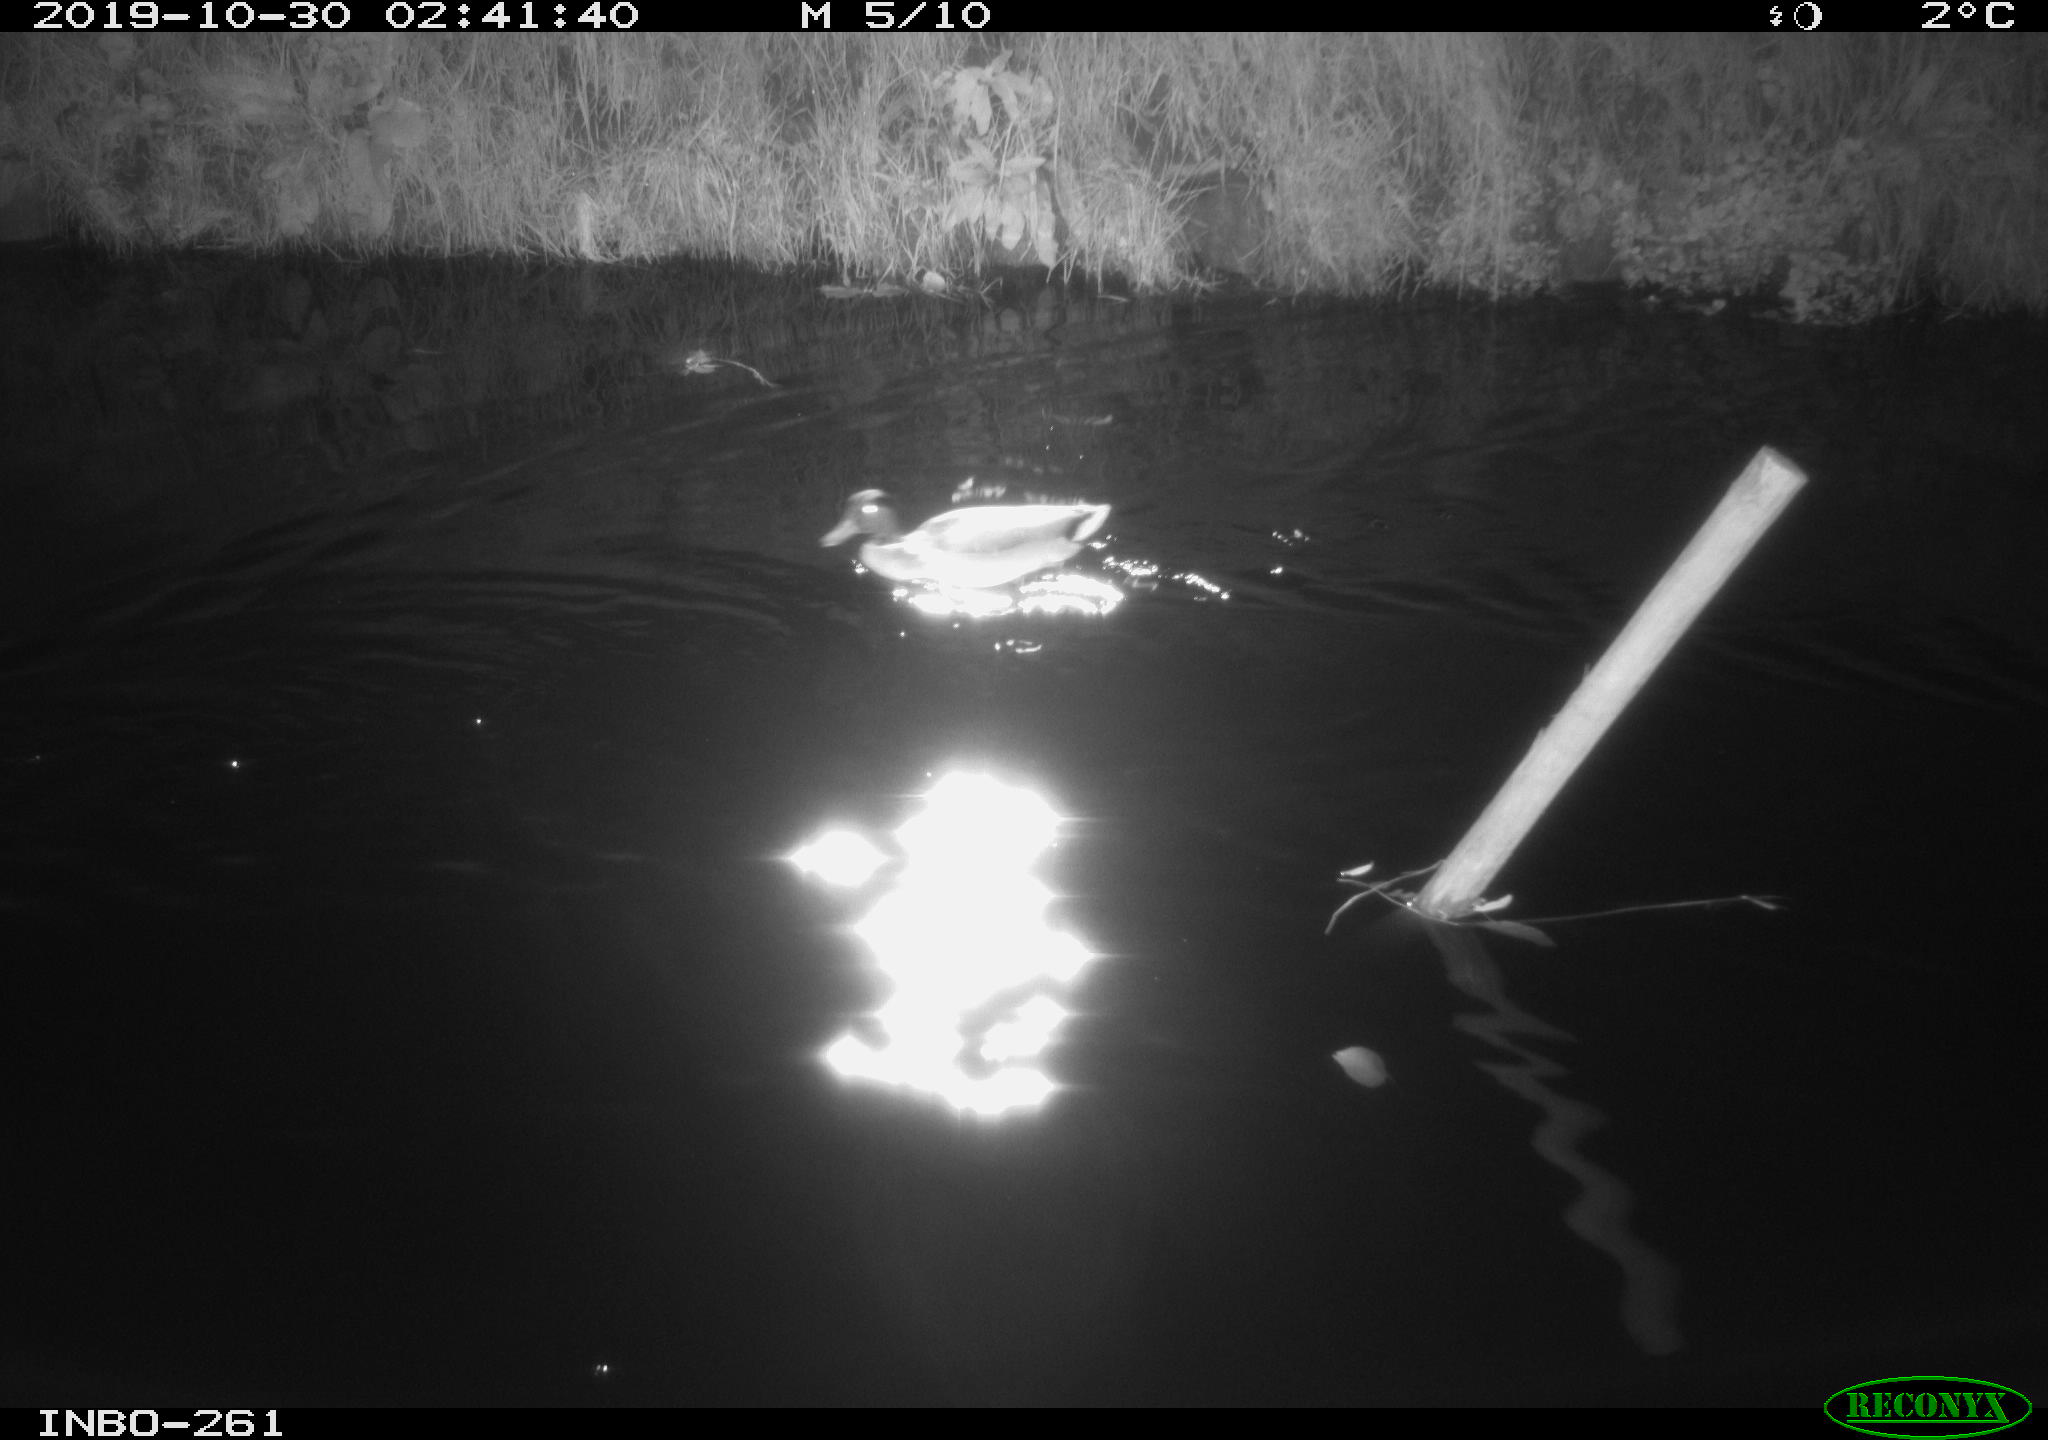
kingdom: Animalia
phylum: Chordata
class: Aves
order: Anseriformes
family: Anatidae
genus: Anas
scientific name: Anas platyrhynchos
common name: Mallard
